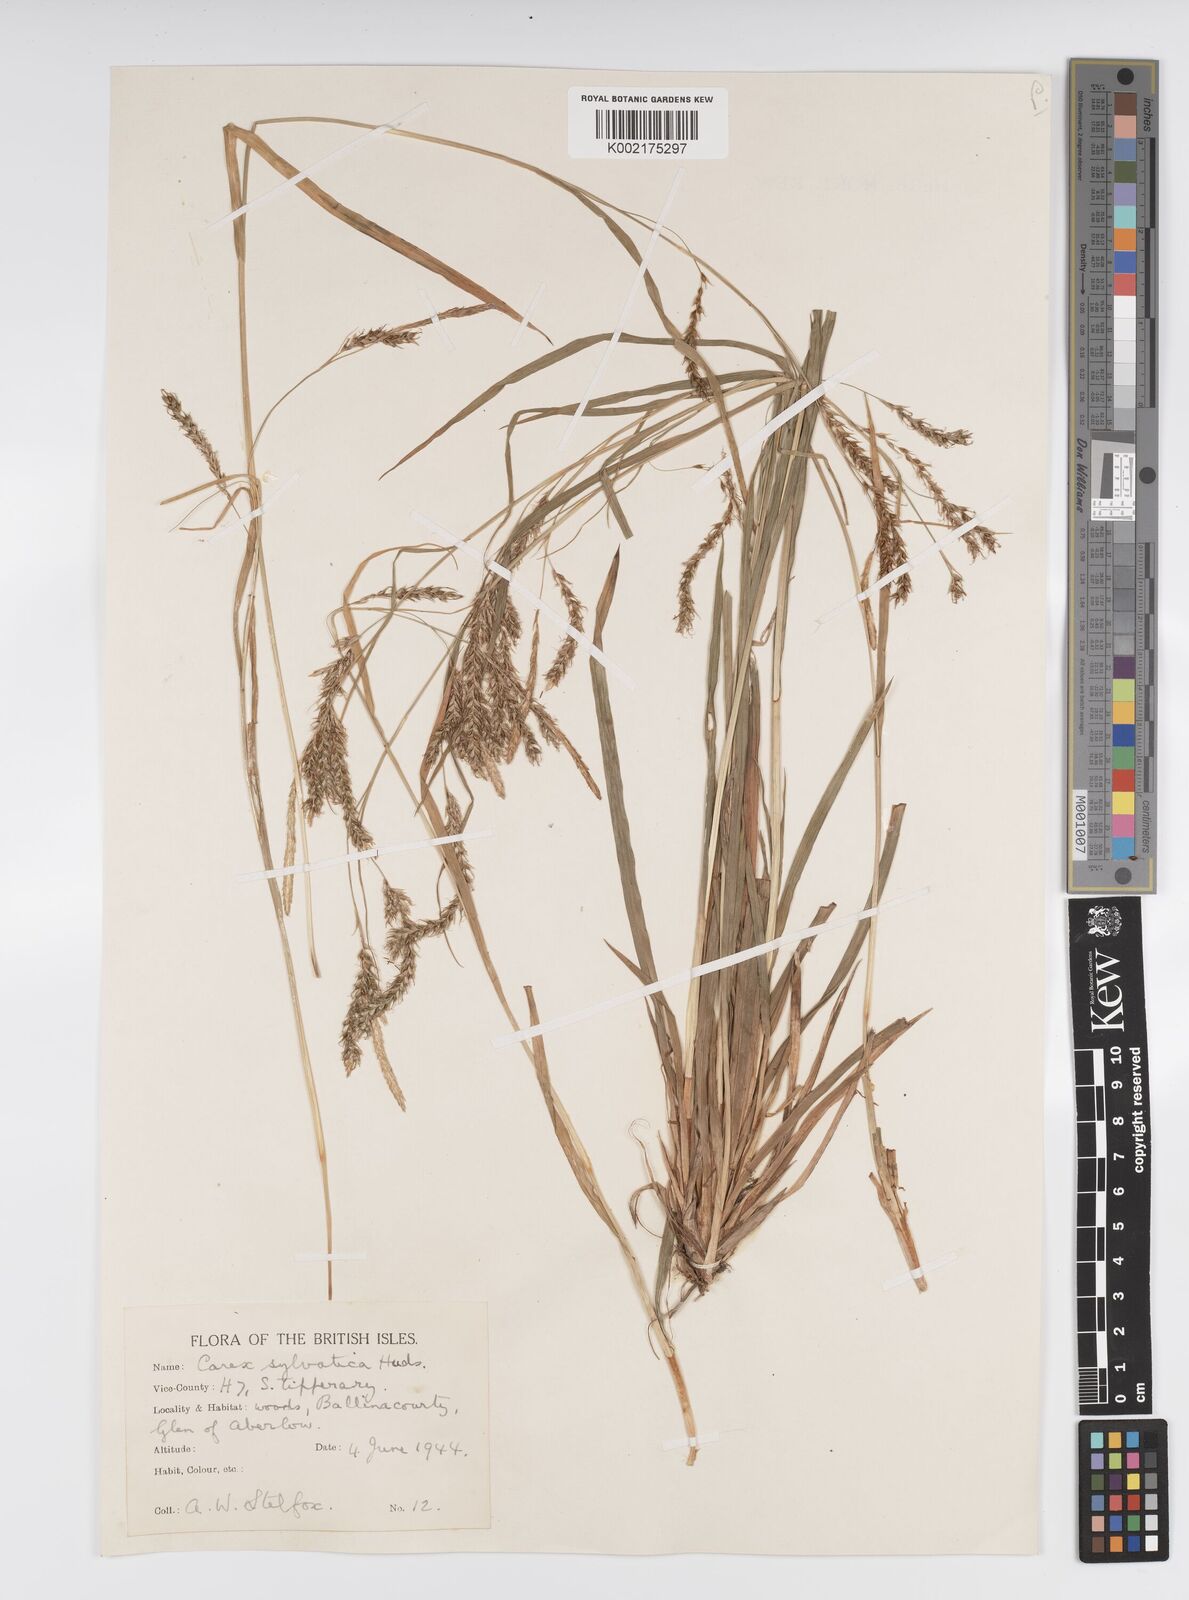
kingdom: Plantae
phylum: Tracheophyta
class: Liliopsida
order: Poales
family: Cyperaceae
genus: Carex
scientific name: Carex sylvatica
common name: Wood-sedge
